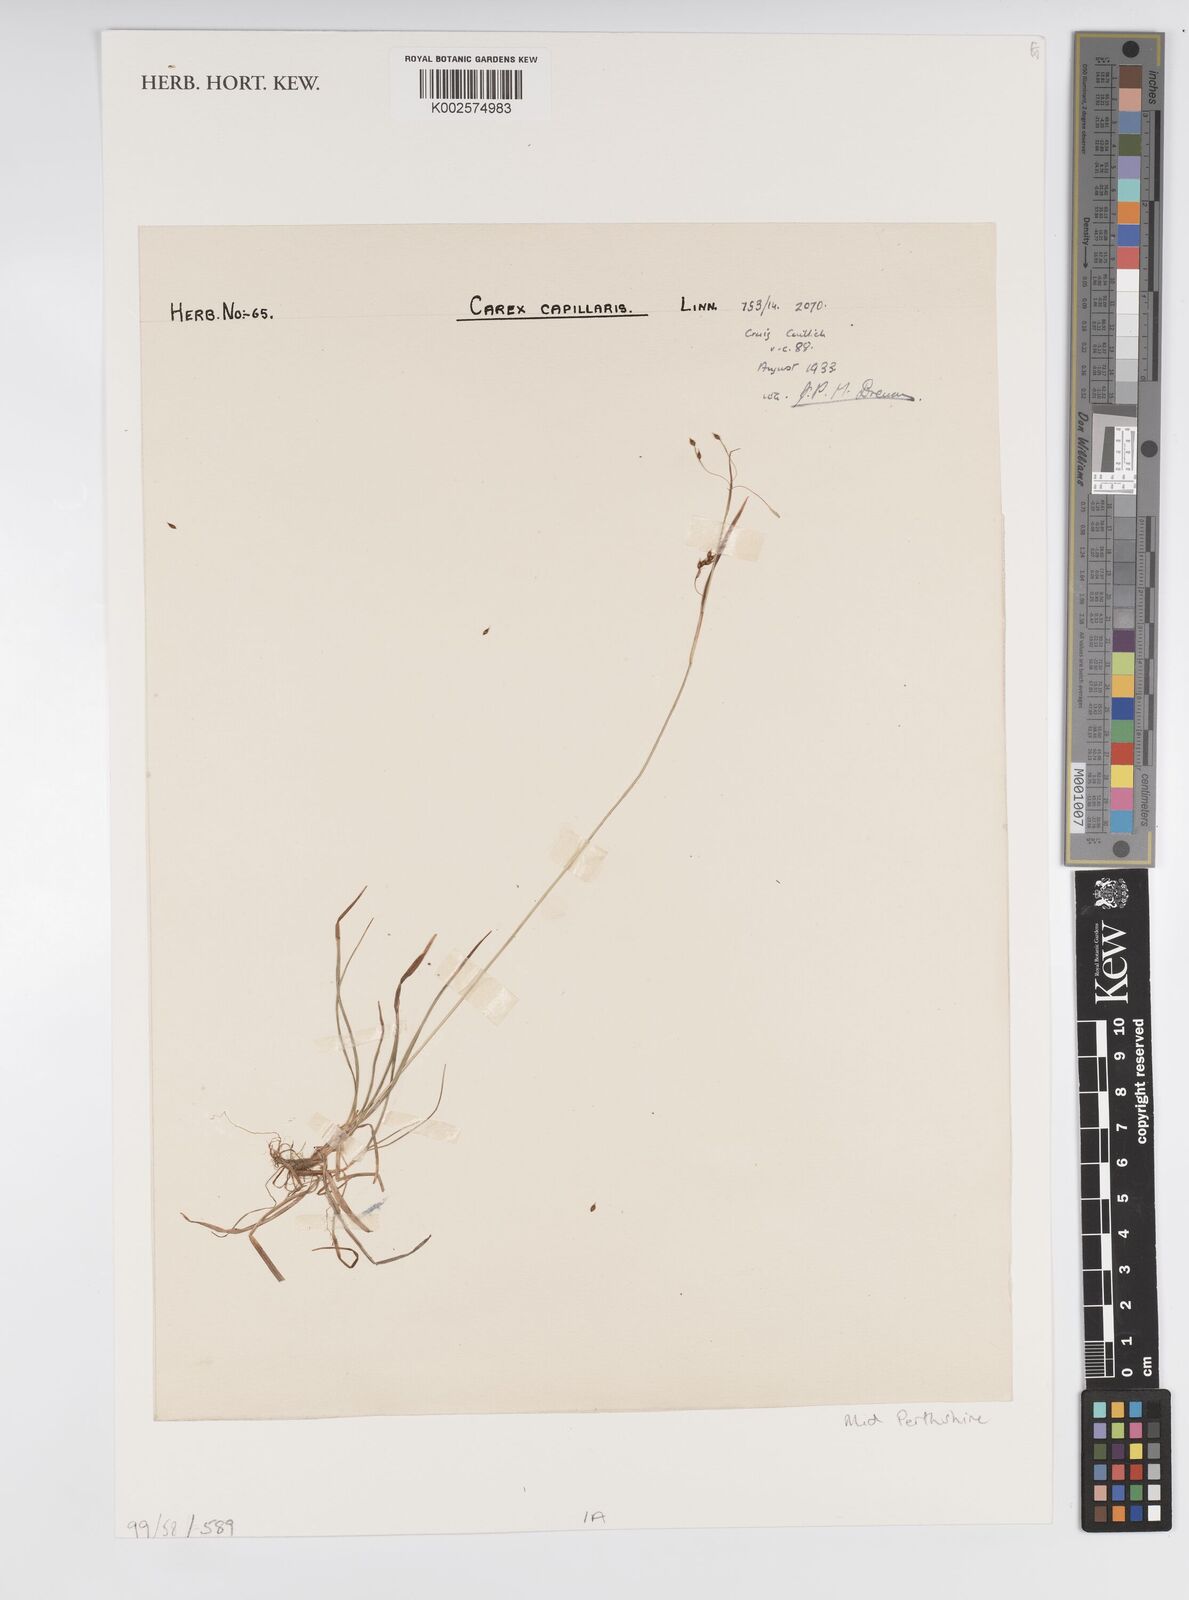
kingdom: Plantae
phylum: Tracheophyta
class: Liliopsida
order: Poales
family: Cyperaceae
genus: Carex
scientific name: Carex capillaris
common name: Hair sedge
